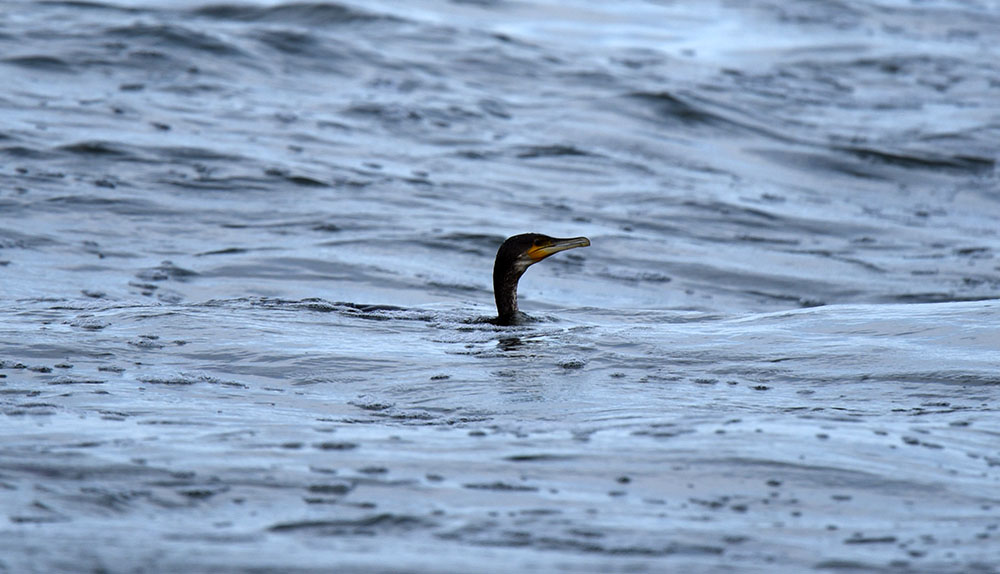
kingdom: Animalia
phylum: Chordata
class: Aves
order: Suliformes
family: Phalacrocoracidae
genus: Phalacrocorax
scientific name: Phalacrocorax carbo
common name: Great cormorant
